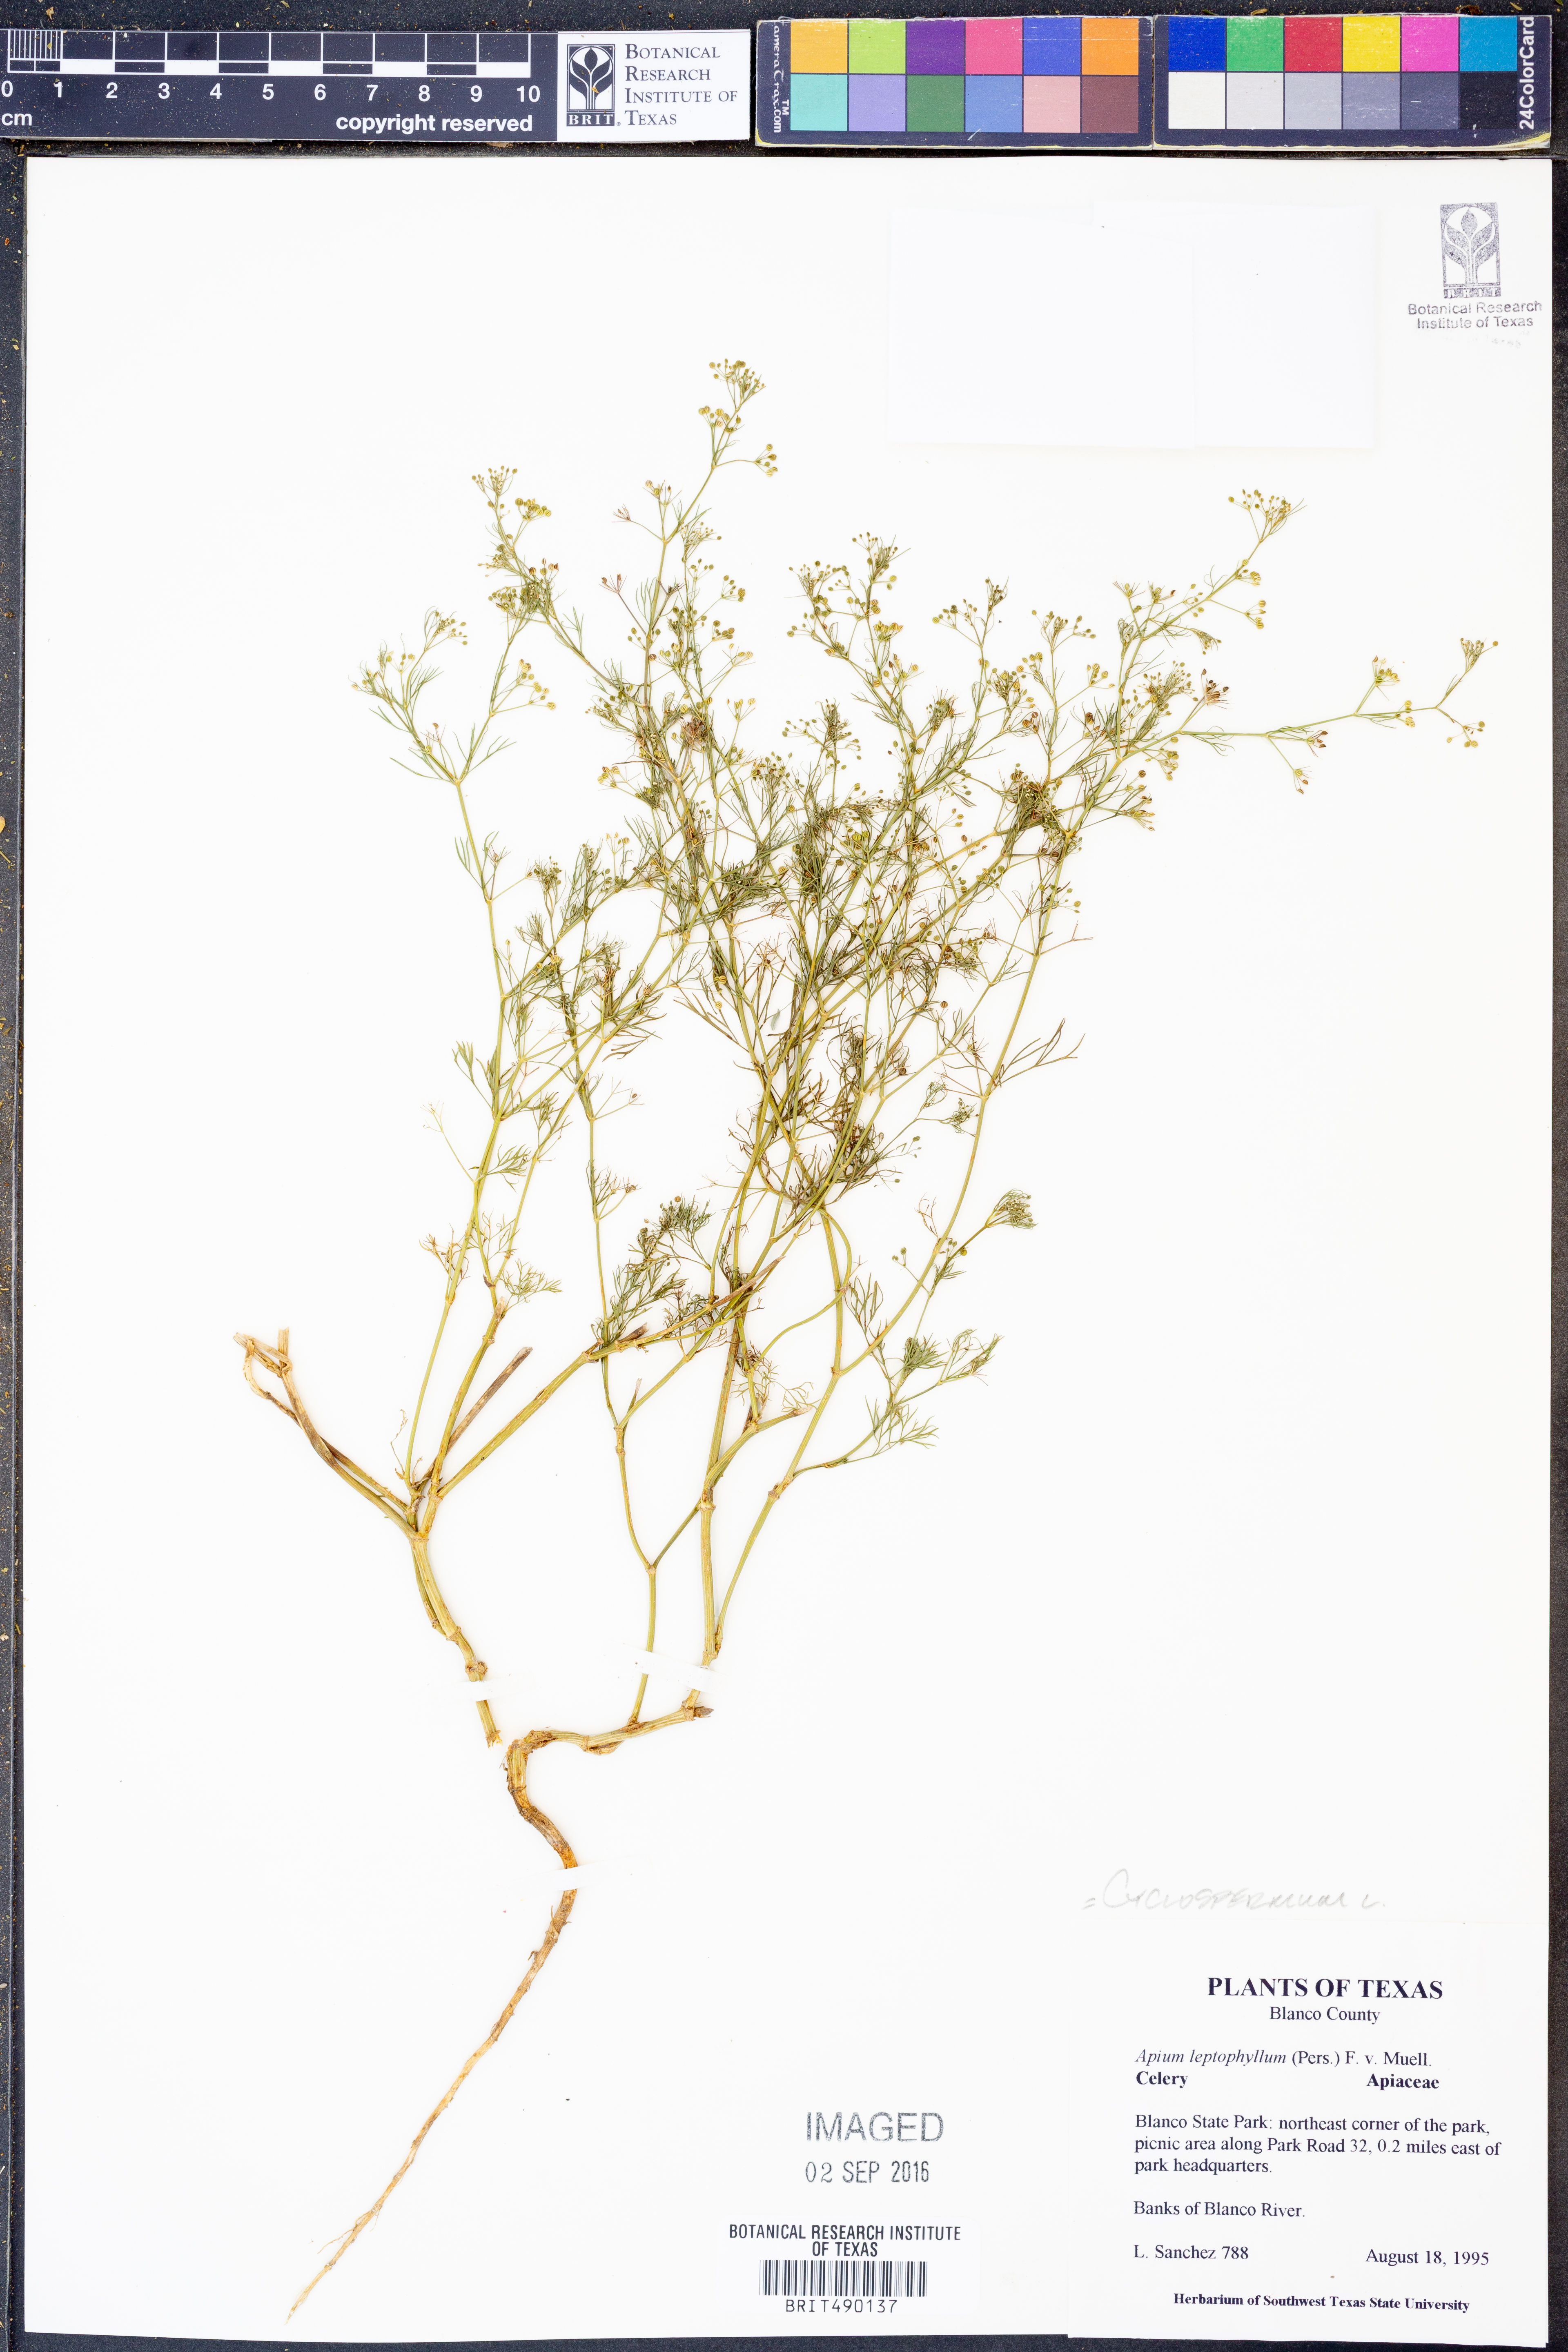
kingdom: Plantae
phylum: Tracheophyta
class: Magnoliopsida
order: Apiales
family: Apiaceae
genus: Cyclospermum
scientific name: Cyclospermum leptophyllum
